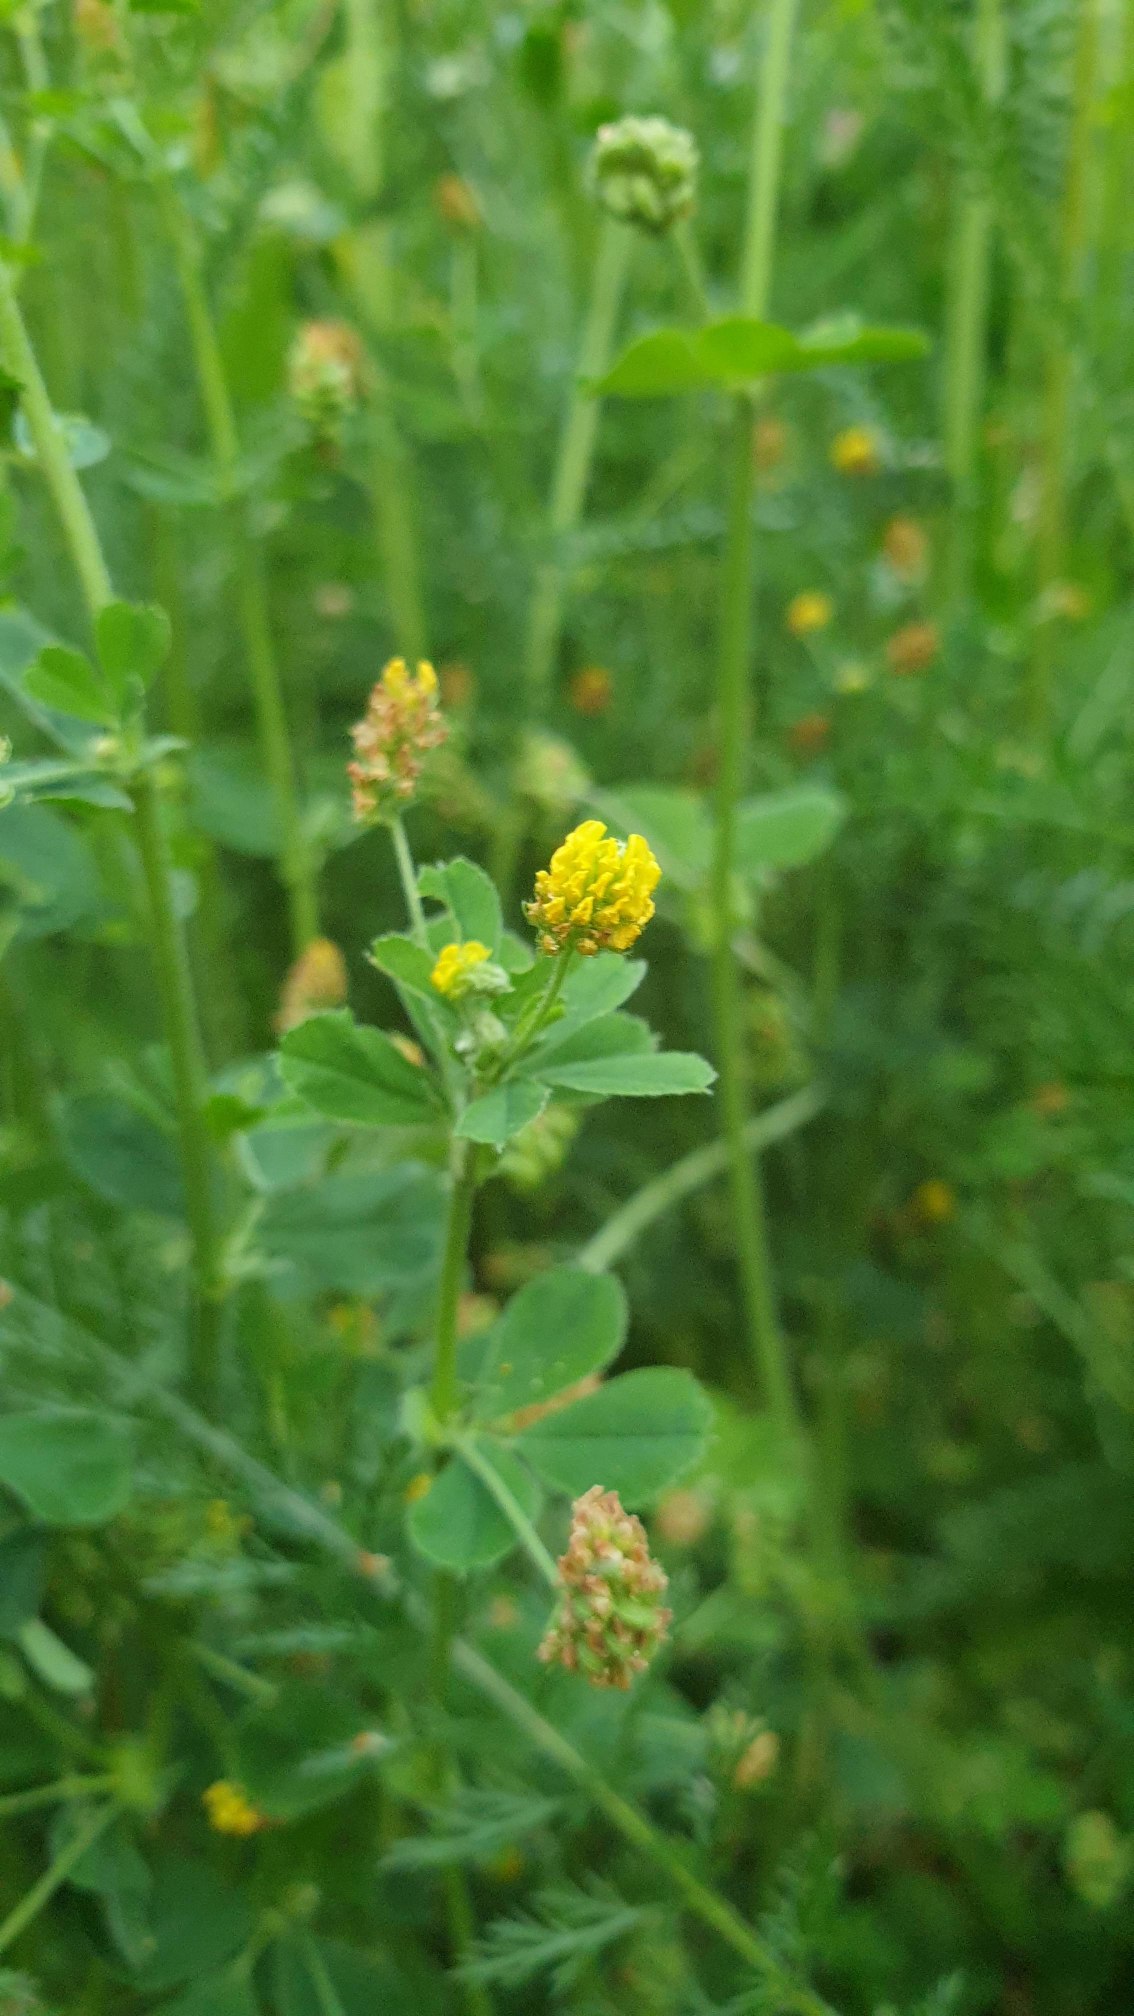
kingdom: Plantae
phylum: Tracheophyta
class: Magnoliopsida
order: Fabales
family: Fabaceae
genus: Medicago
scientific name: Medicago lupulina
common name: Humle-sneglebælg
